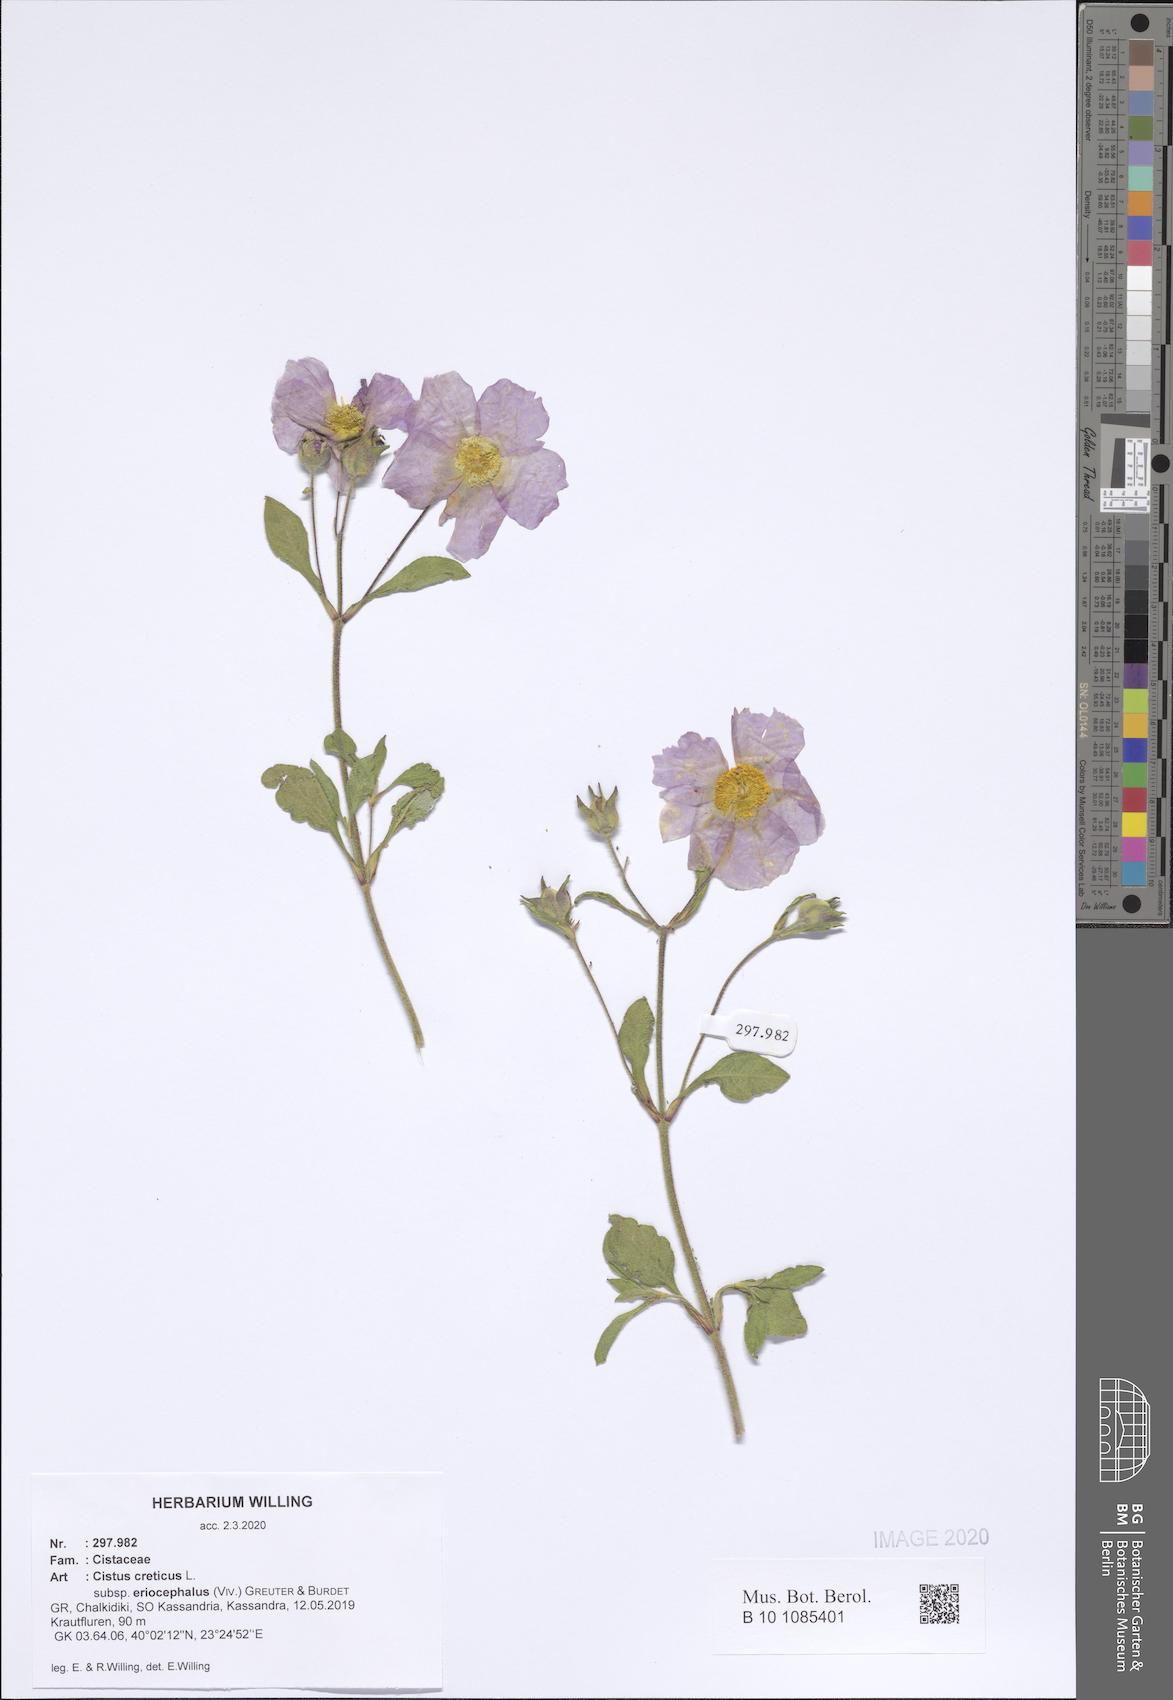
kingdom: Plantae
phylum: Tracheophyta
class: Magnoliopsida
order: Malvales
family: Cistaceae
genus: Cistus
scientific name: Cistus tauricus
